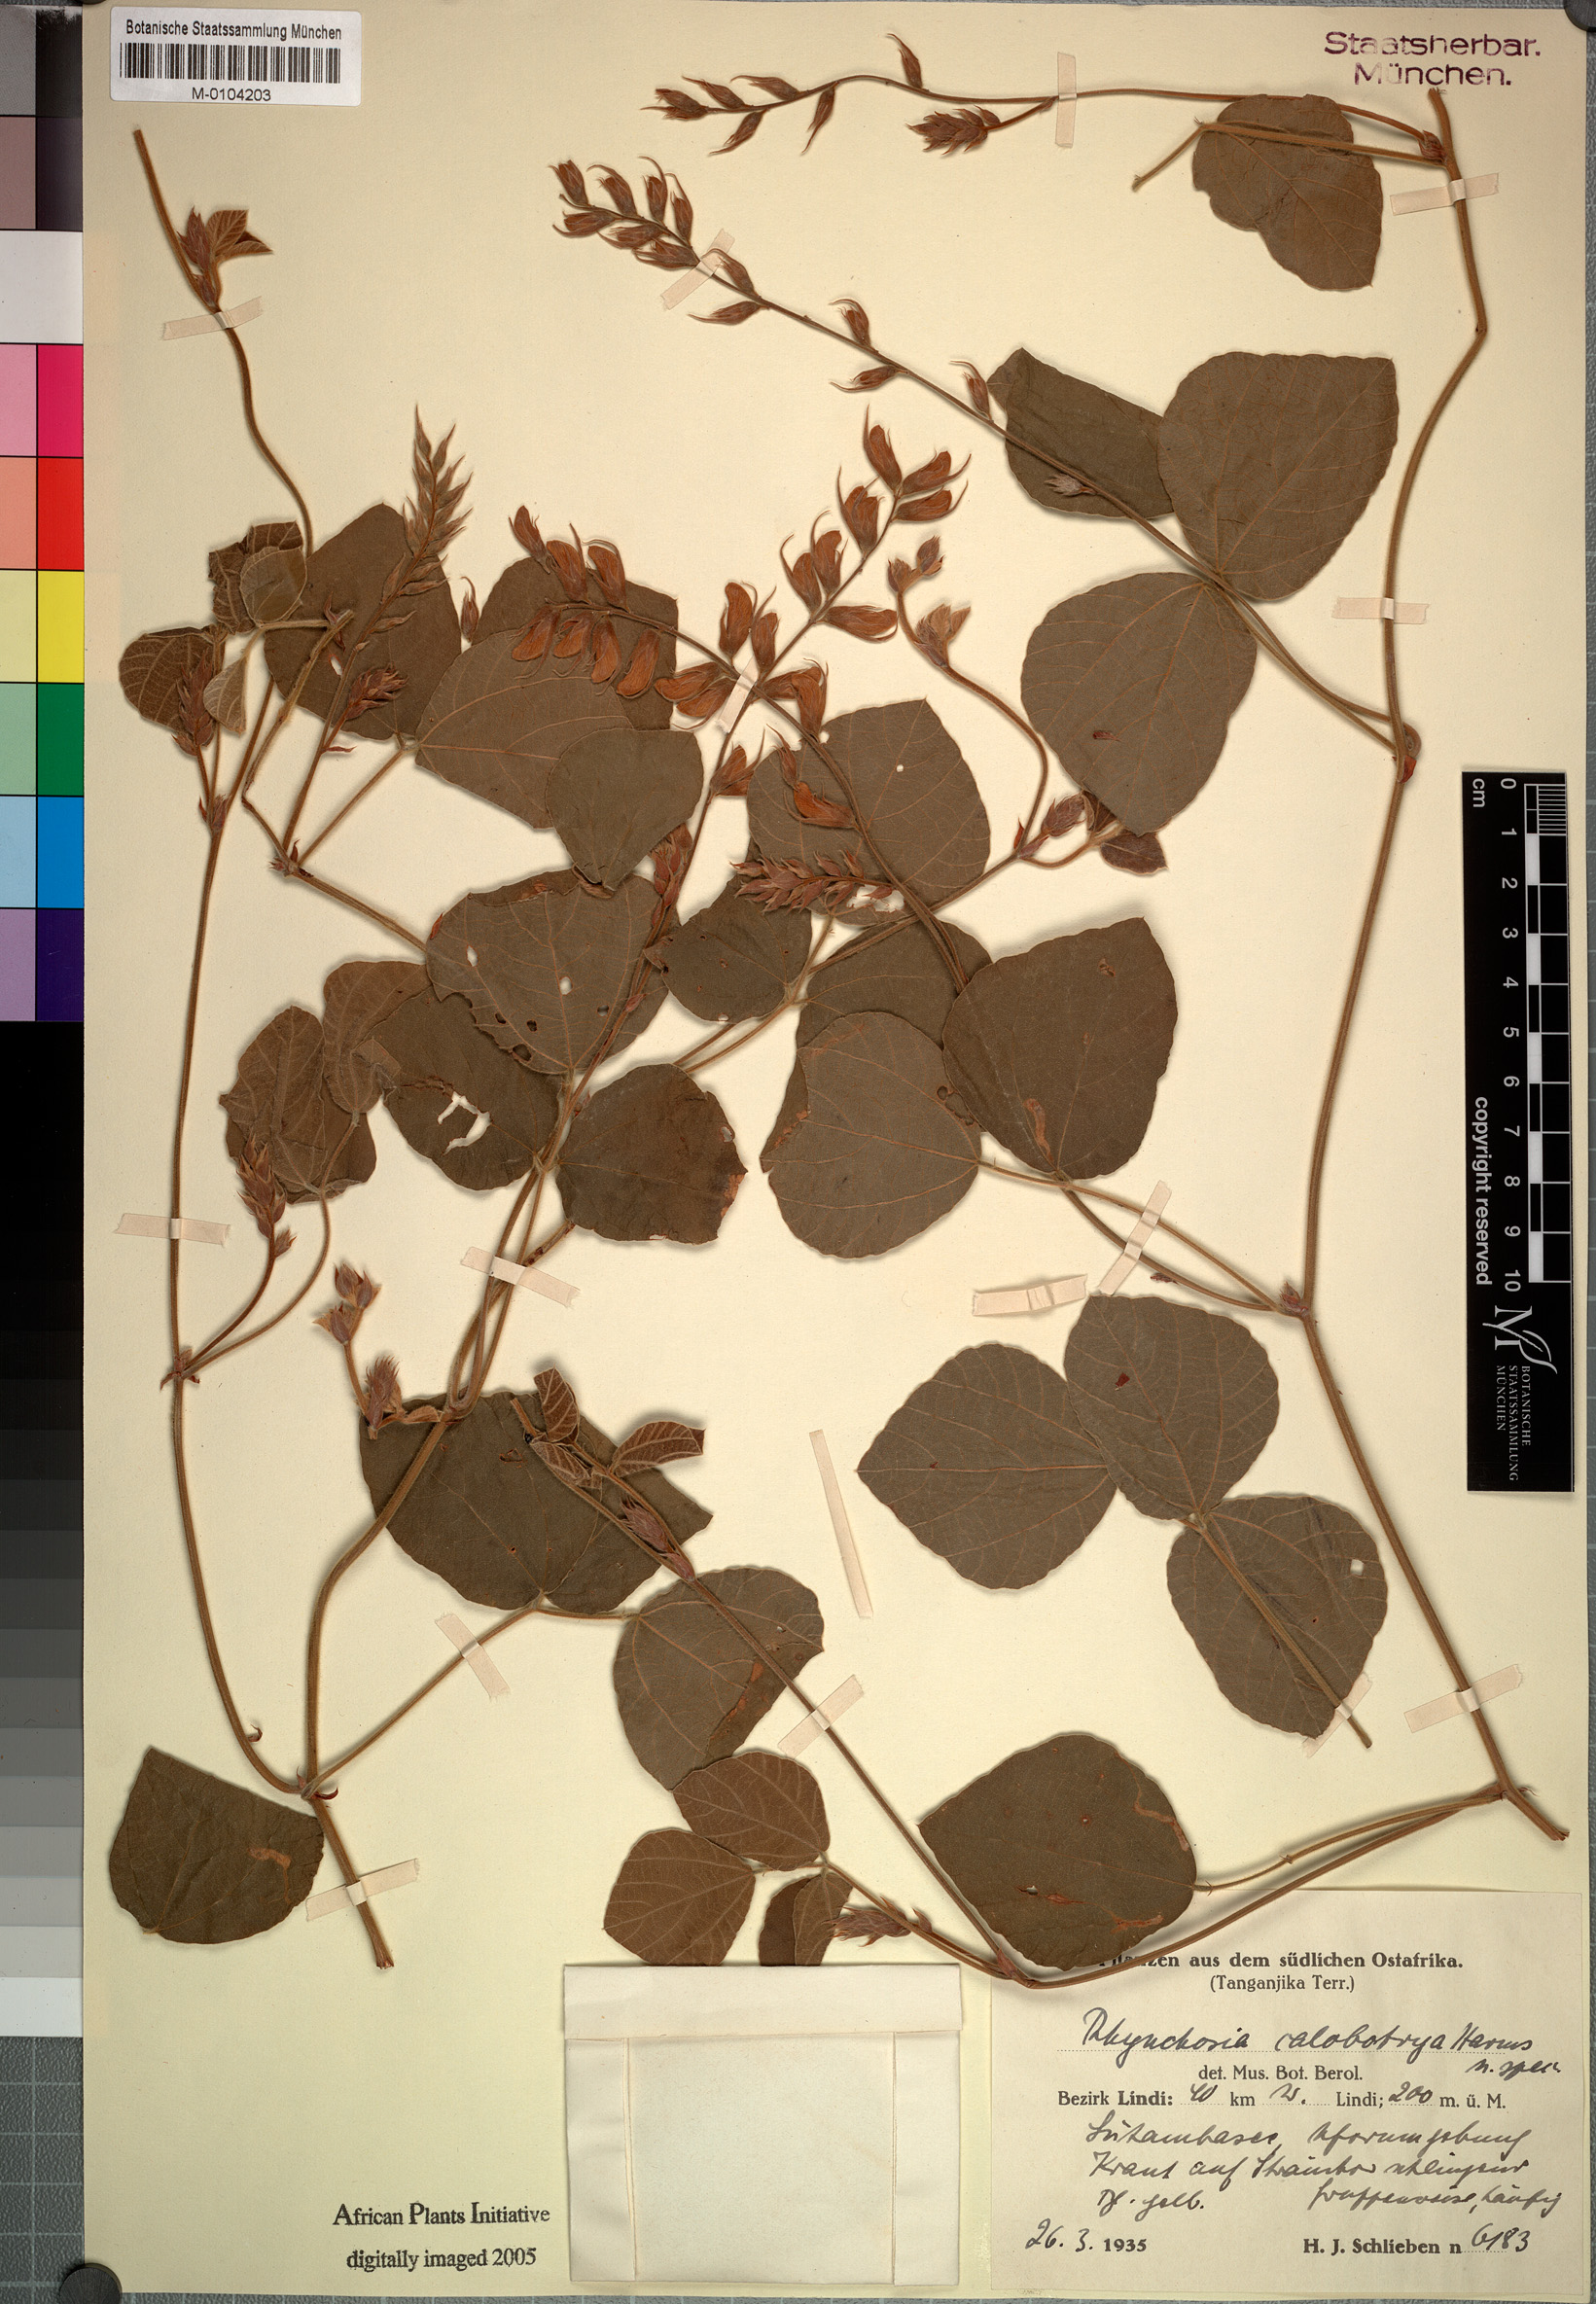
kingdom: Plantae
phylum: Tracheophyta
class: Magnoliopsida
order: Fabales
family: Fabaceae
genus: Rhynchosia
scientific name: Rhynchosia calobotrya
